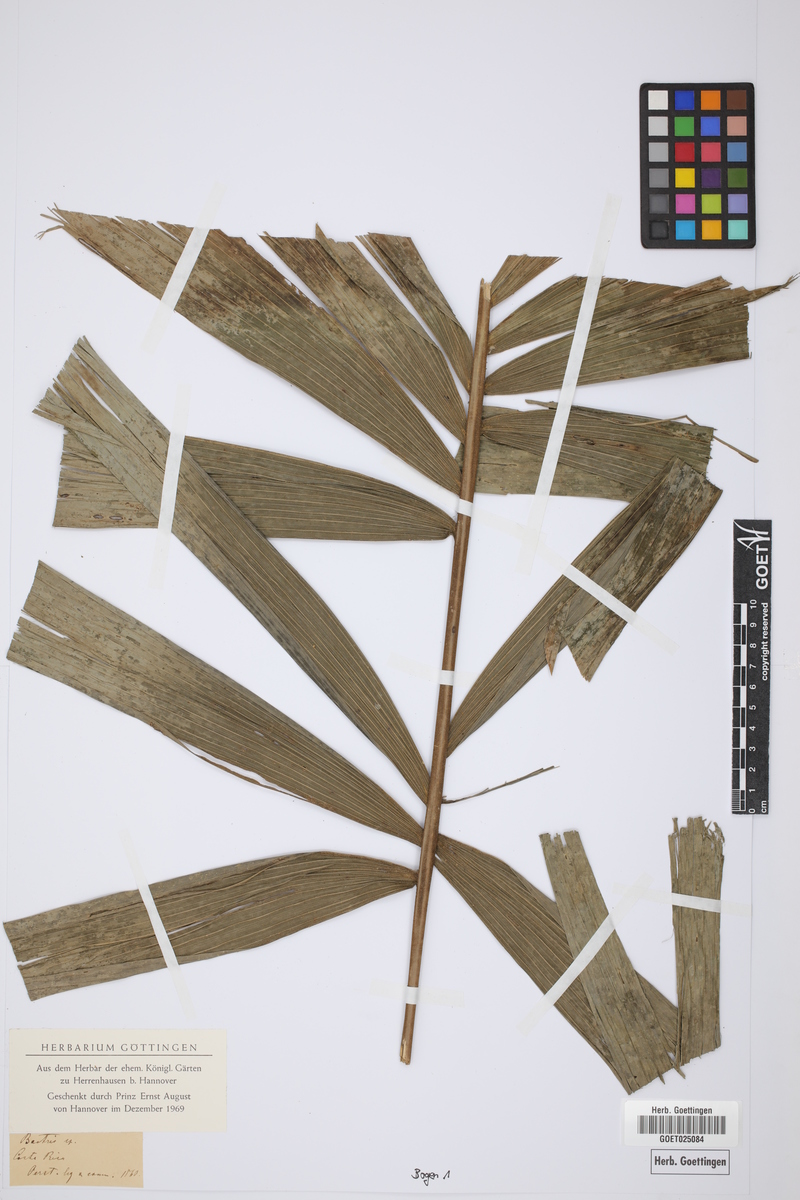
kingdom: Plantae
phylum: Tracheophyta
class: Liliopsida
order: Arecales
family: Arecaceae
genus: Bactris
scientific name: Bactris
